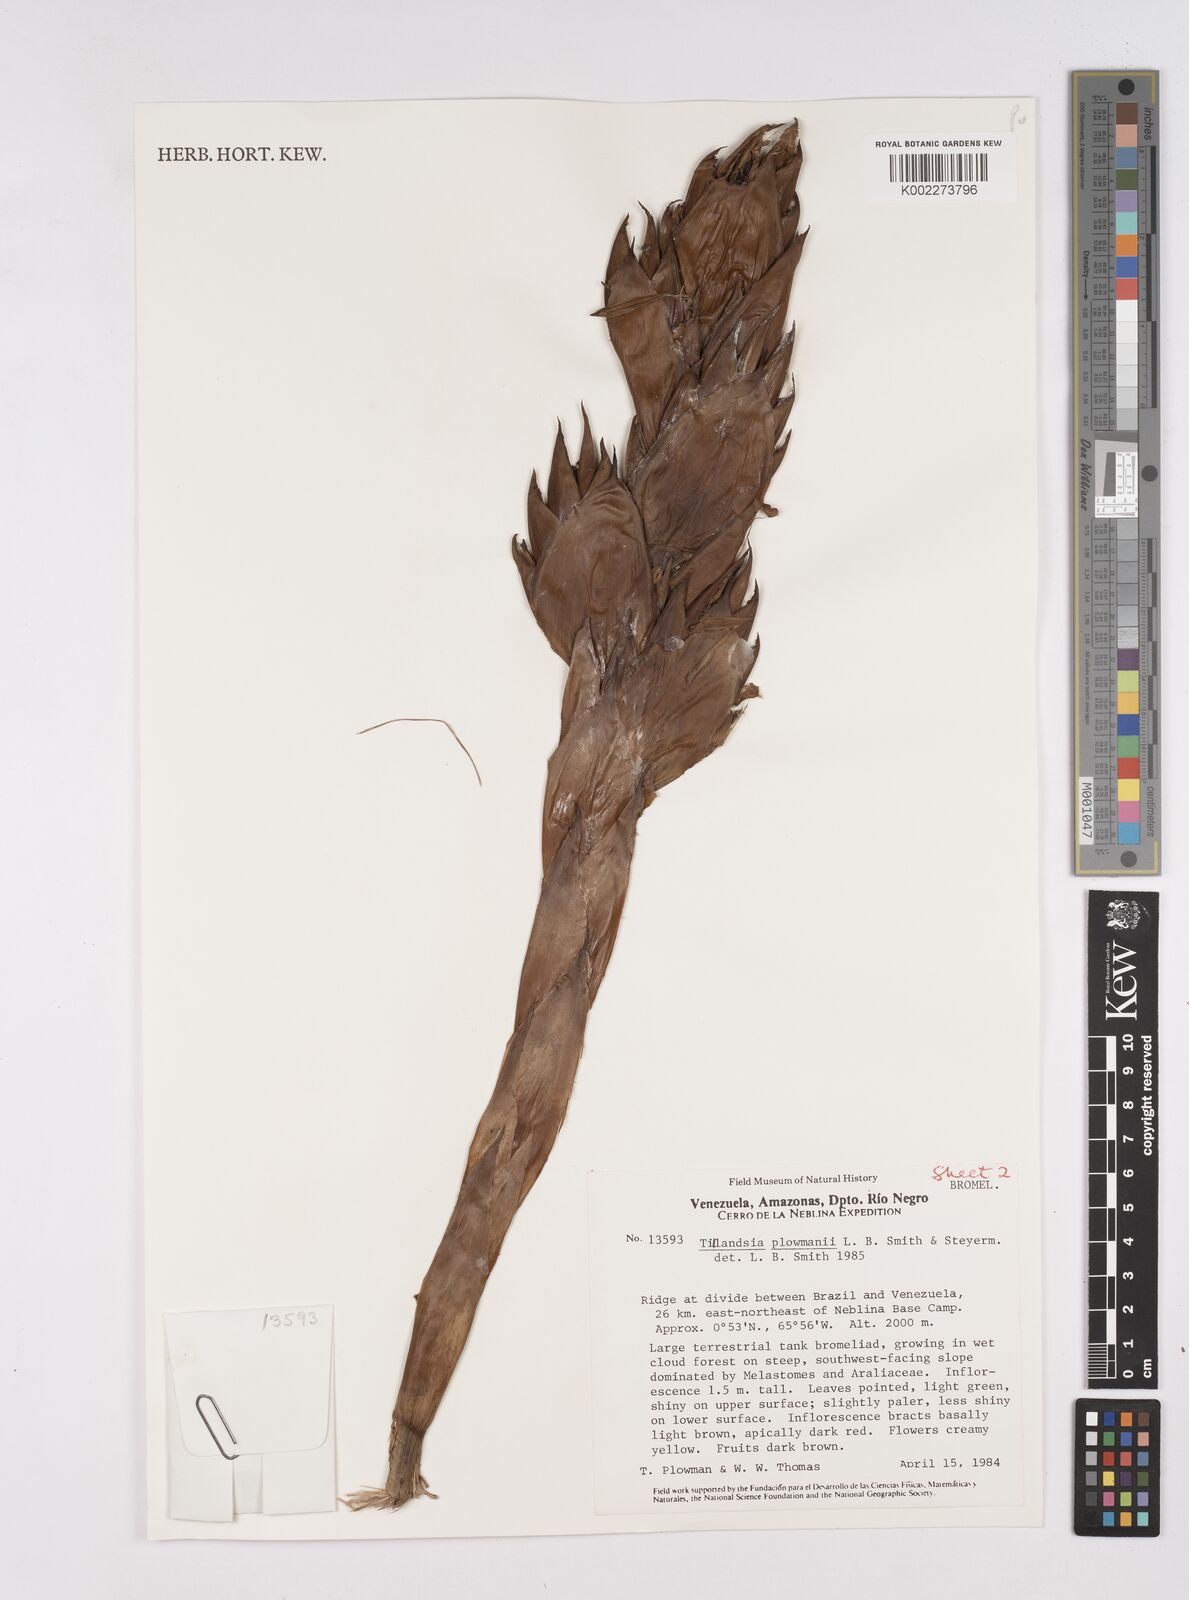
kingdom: Plantae
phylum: Tracheophyta
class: Liliopsida
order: Poales
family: Bromeliaceae
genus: Tillandsia
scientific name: Tillandsia
